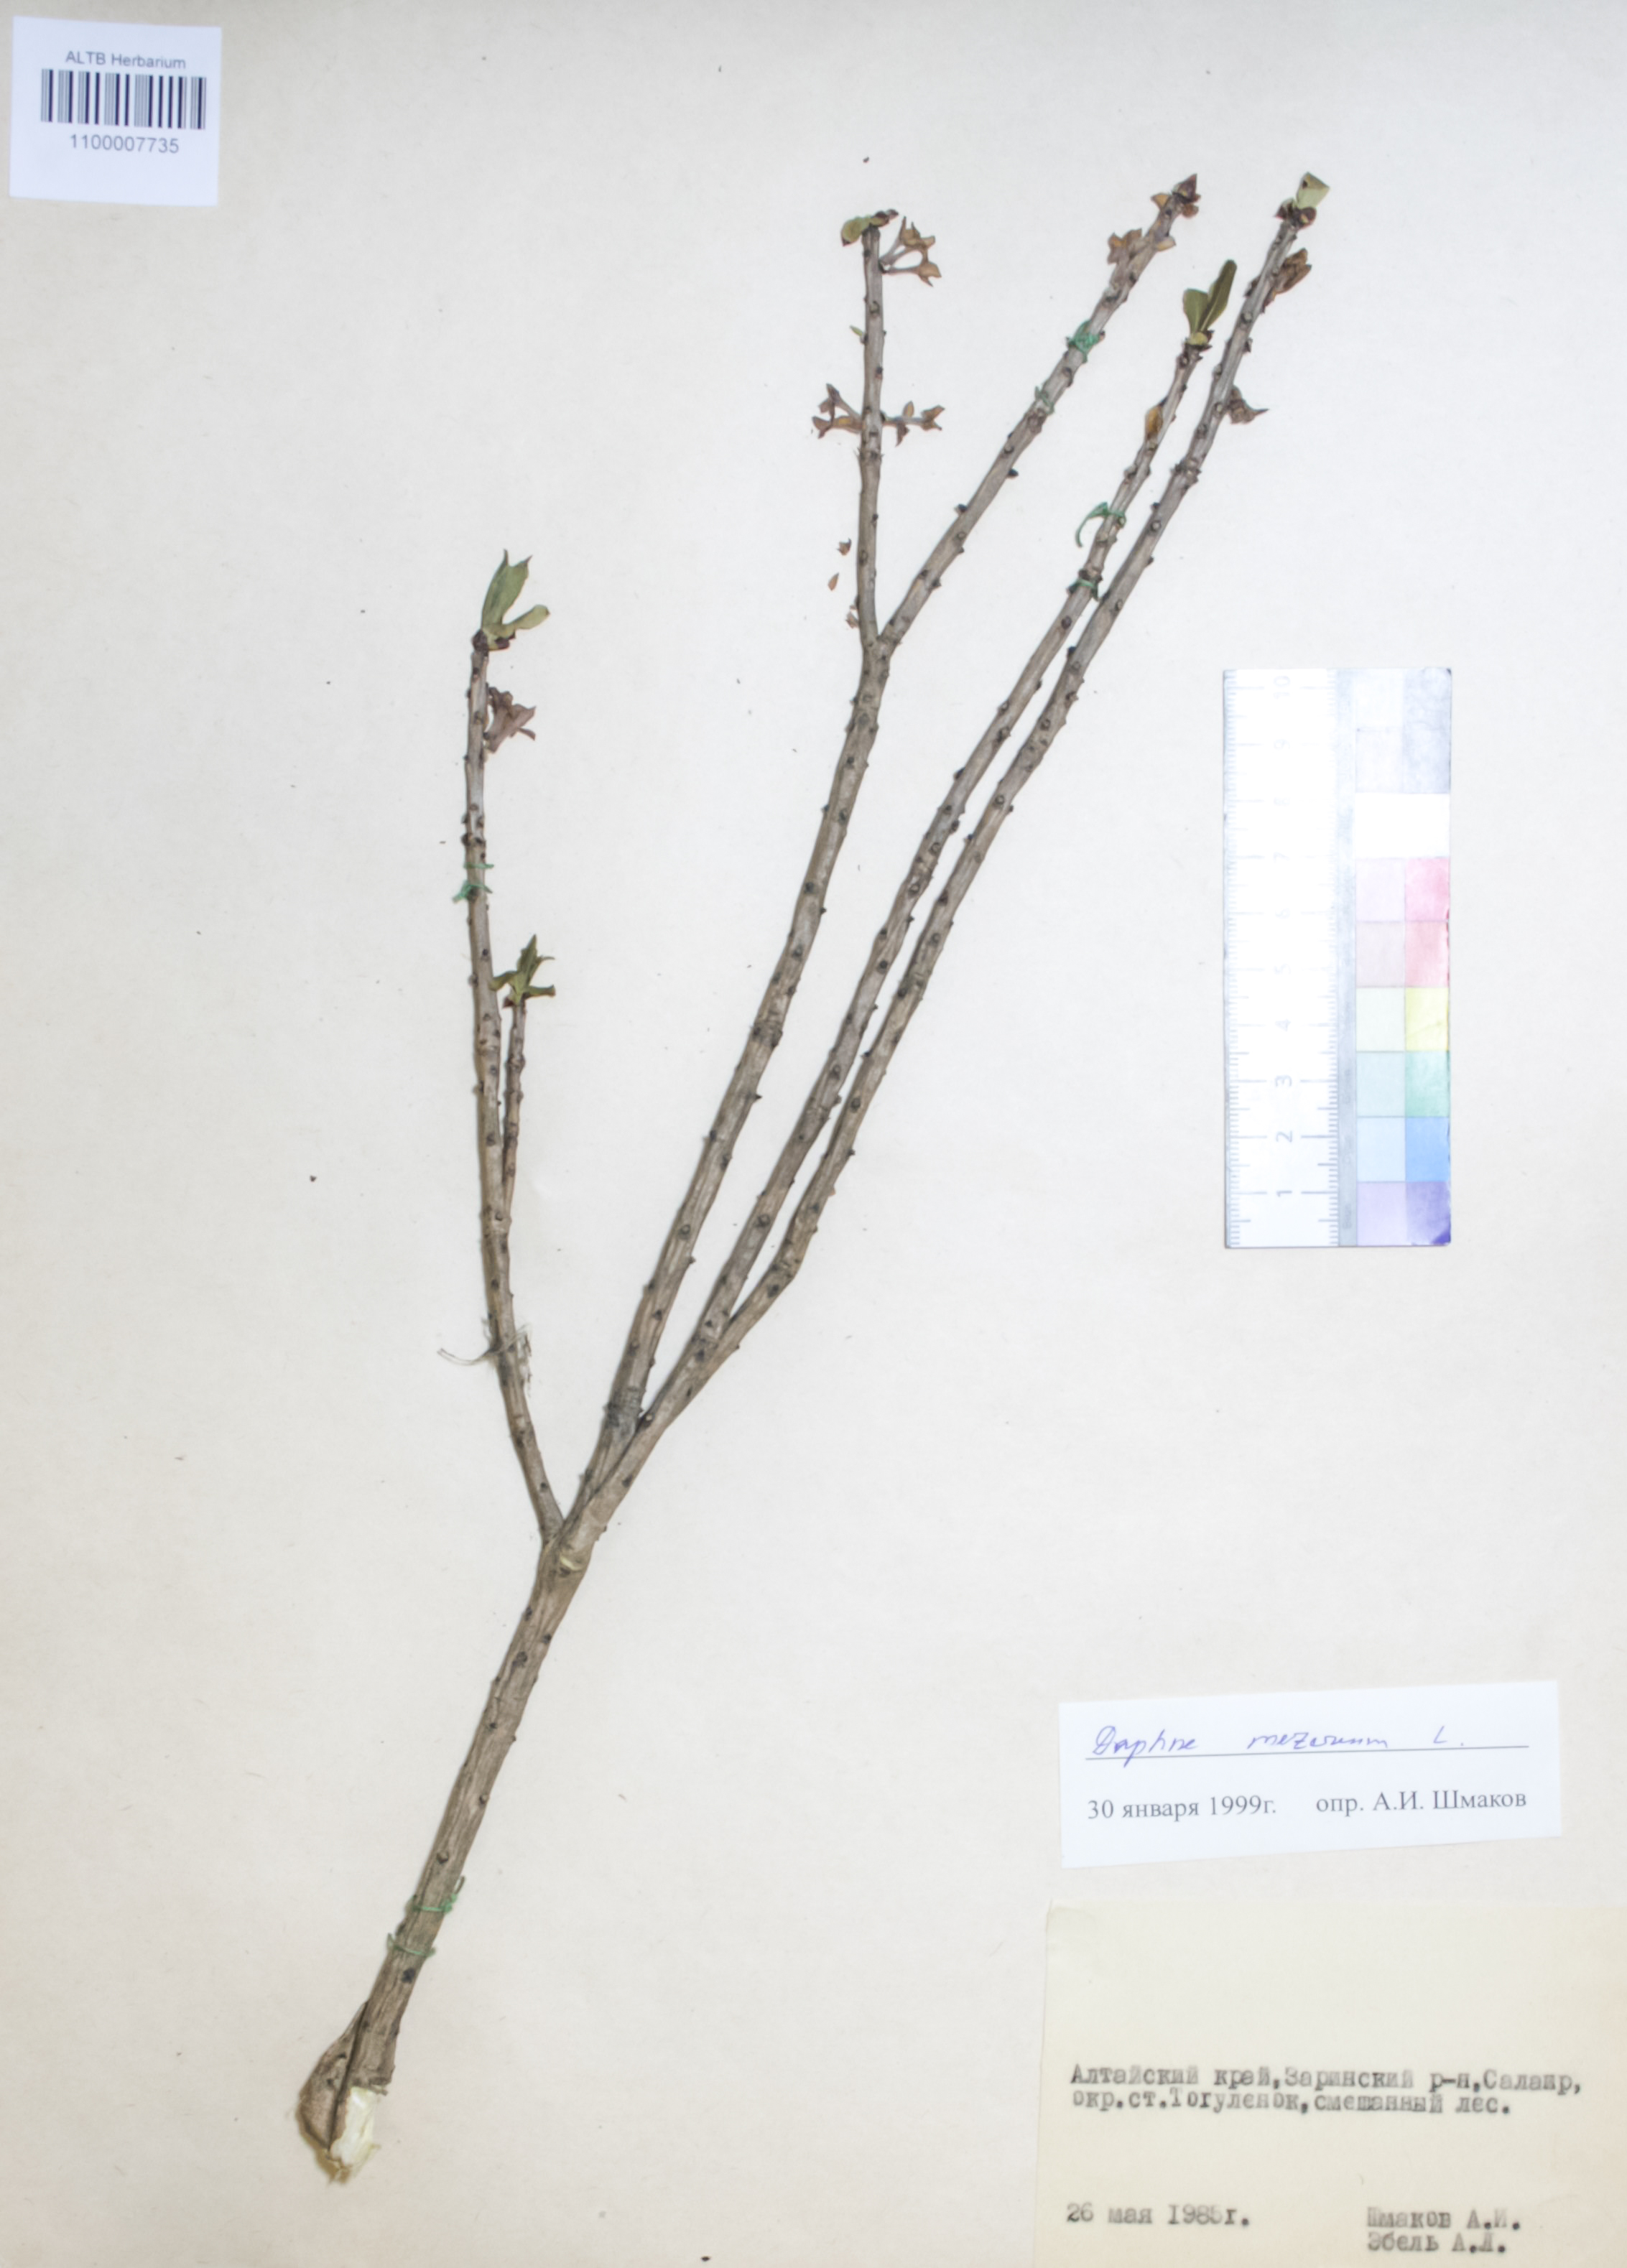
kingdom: Plantae
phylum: Tracheophyta
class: Magnoliopsida
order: Malvales
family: Thymelaeaceae
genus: Daphne
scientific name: Daphne mezereum
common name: Mezereon
